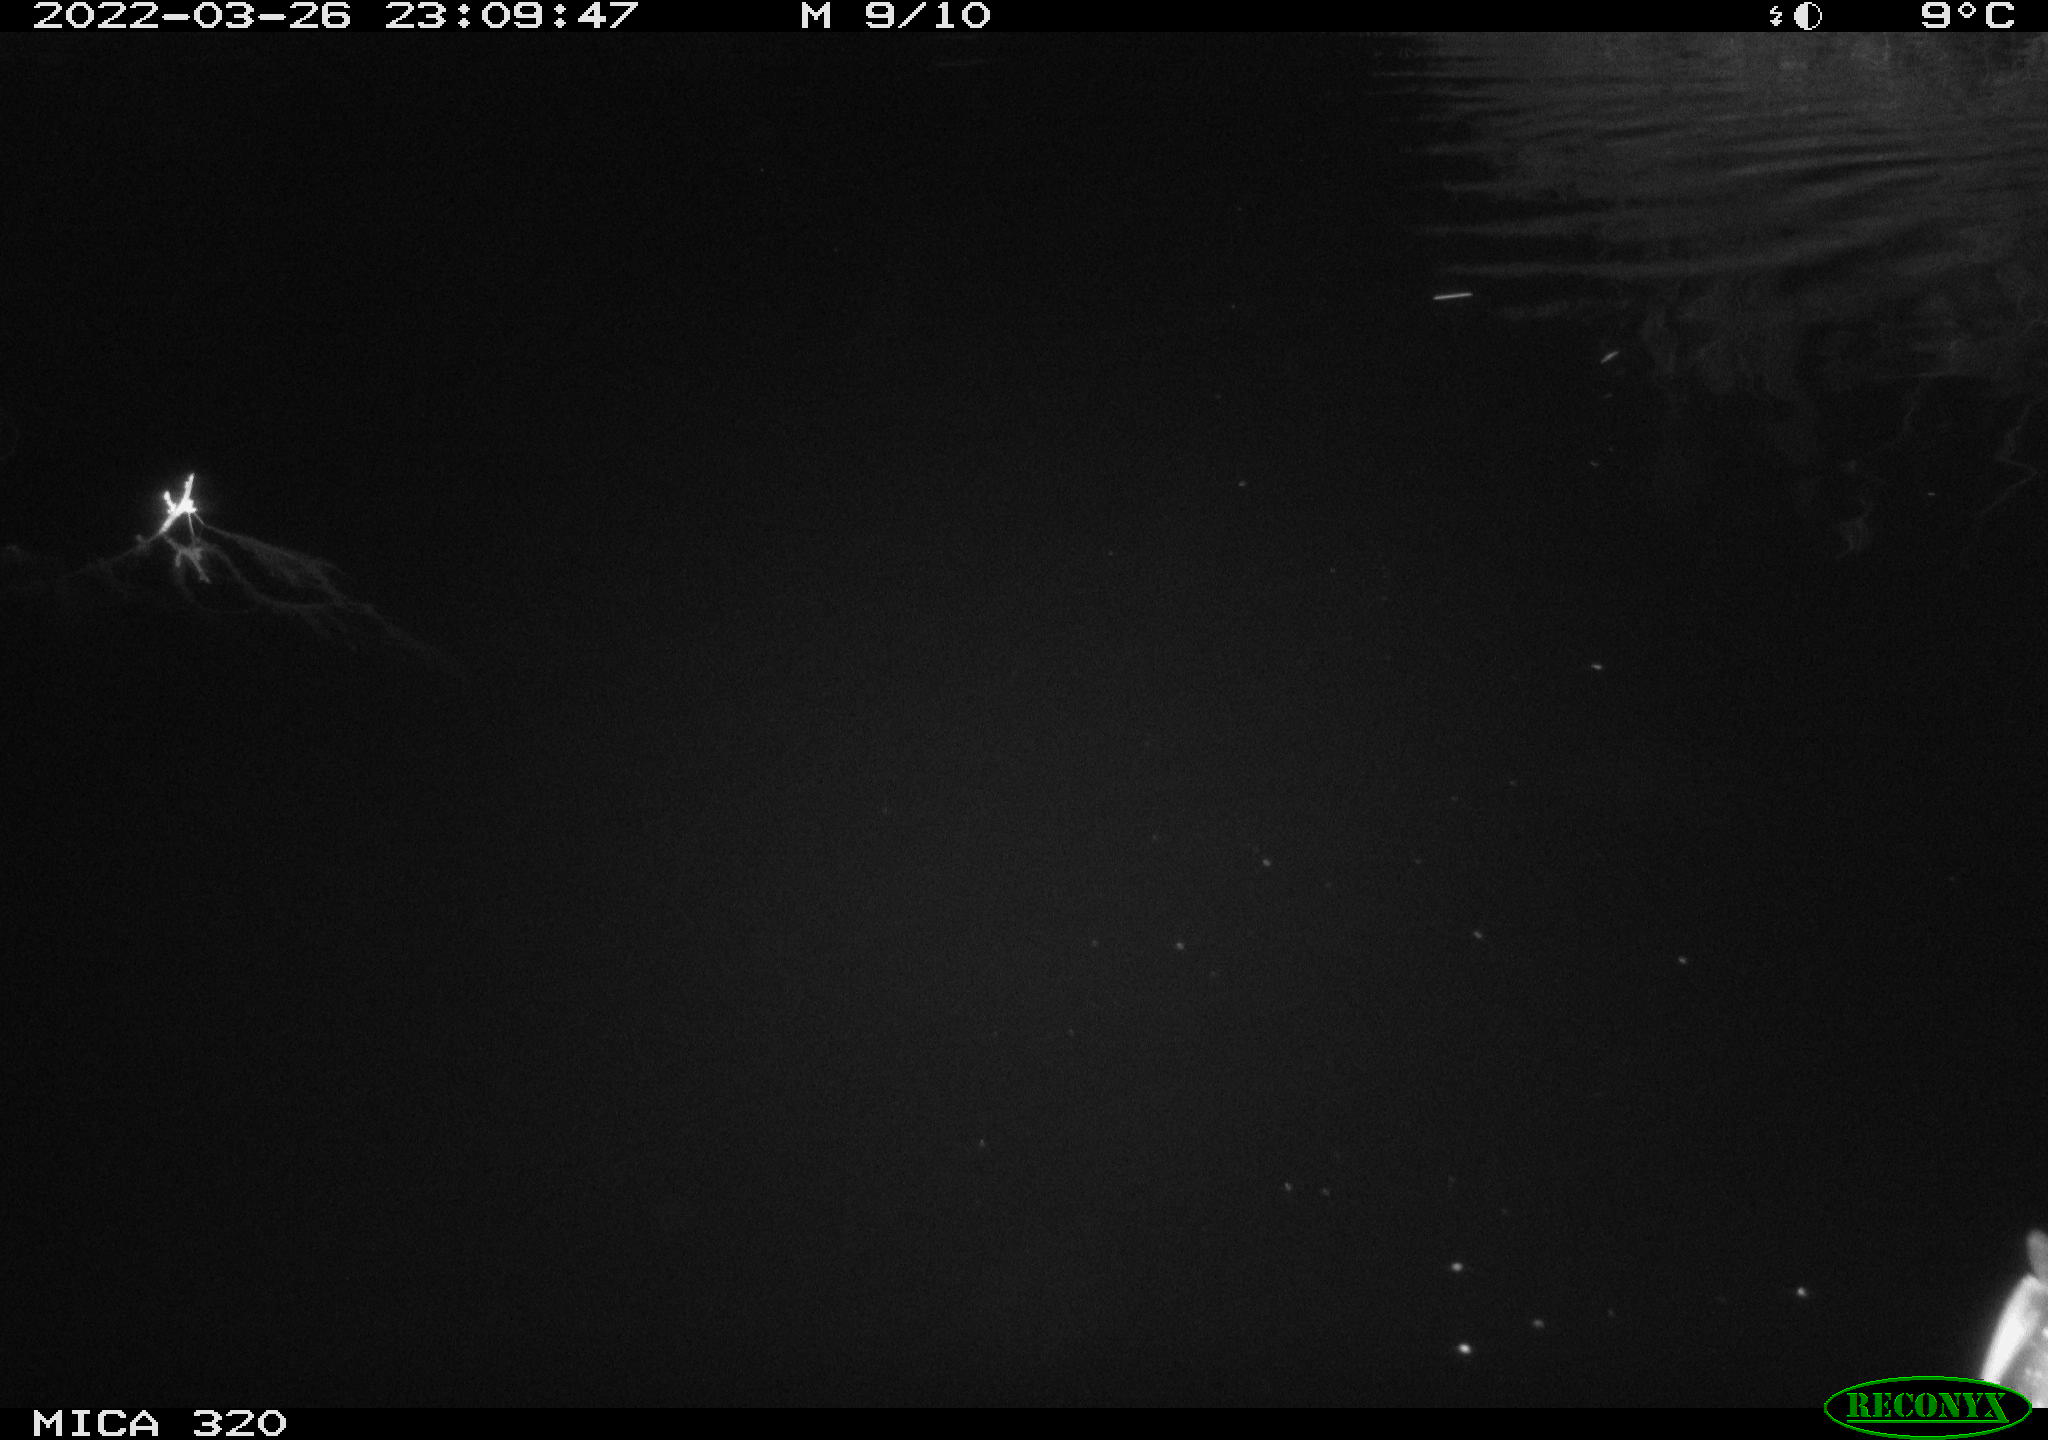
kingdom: Animalia
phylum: Chordata
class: Aves
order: Anseriformes
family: Anatidae
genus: Anas
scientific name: Anas platyrhynchos
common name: Mallard
